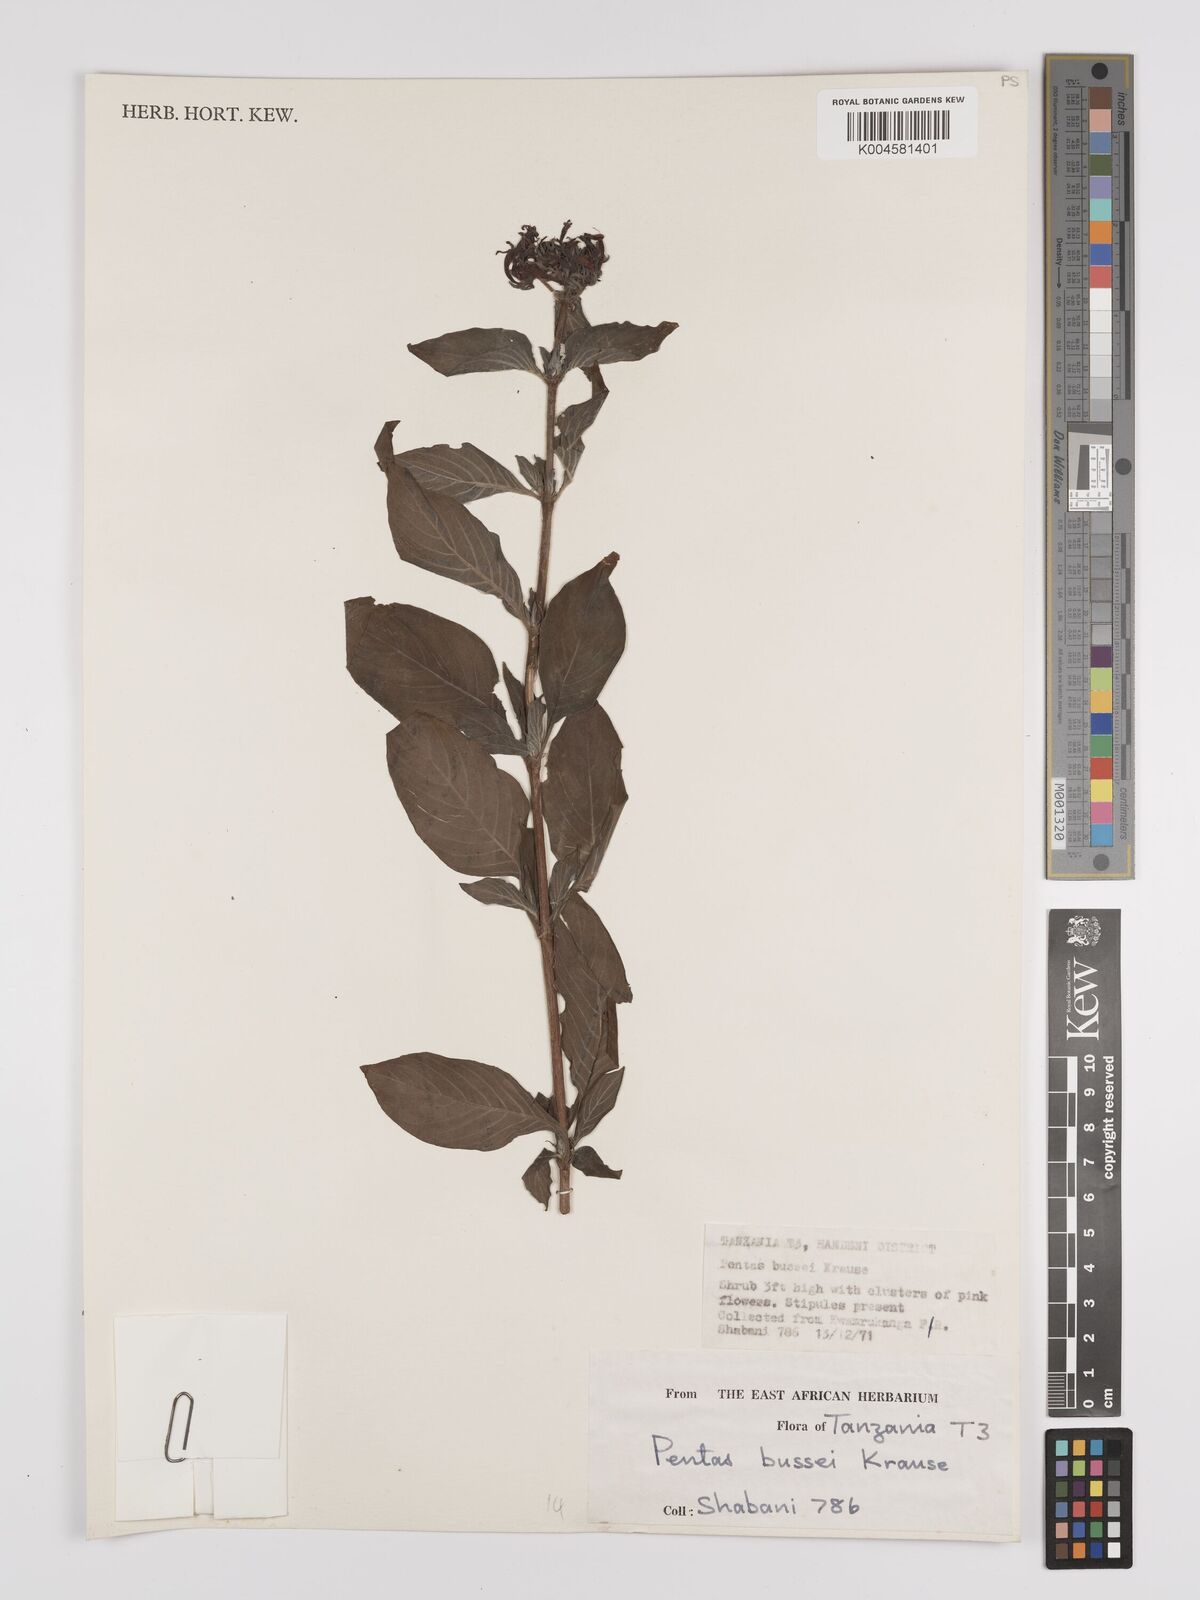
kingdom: Plantae
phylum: Tracheophyta
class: Magnoliopsida
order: Gentianales
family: Rubiaceae
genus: Rhodopentas
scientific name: Rhodopentas bussei
